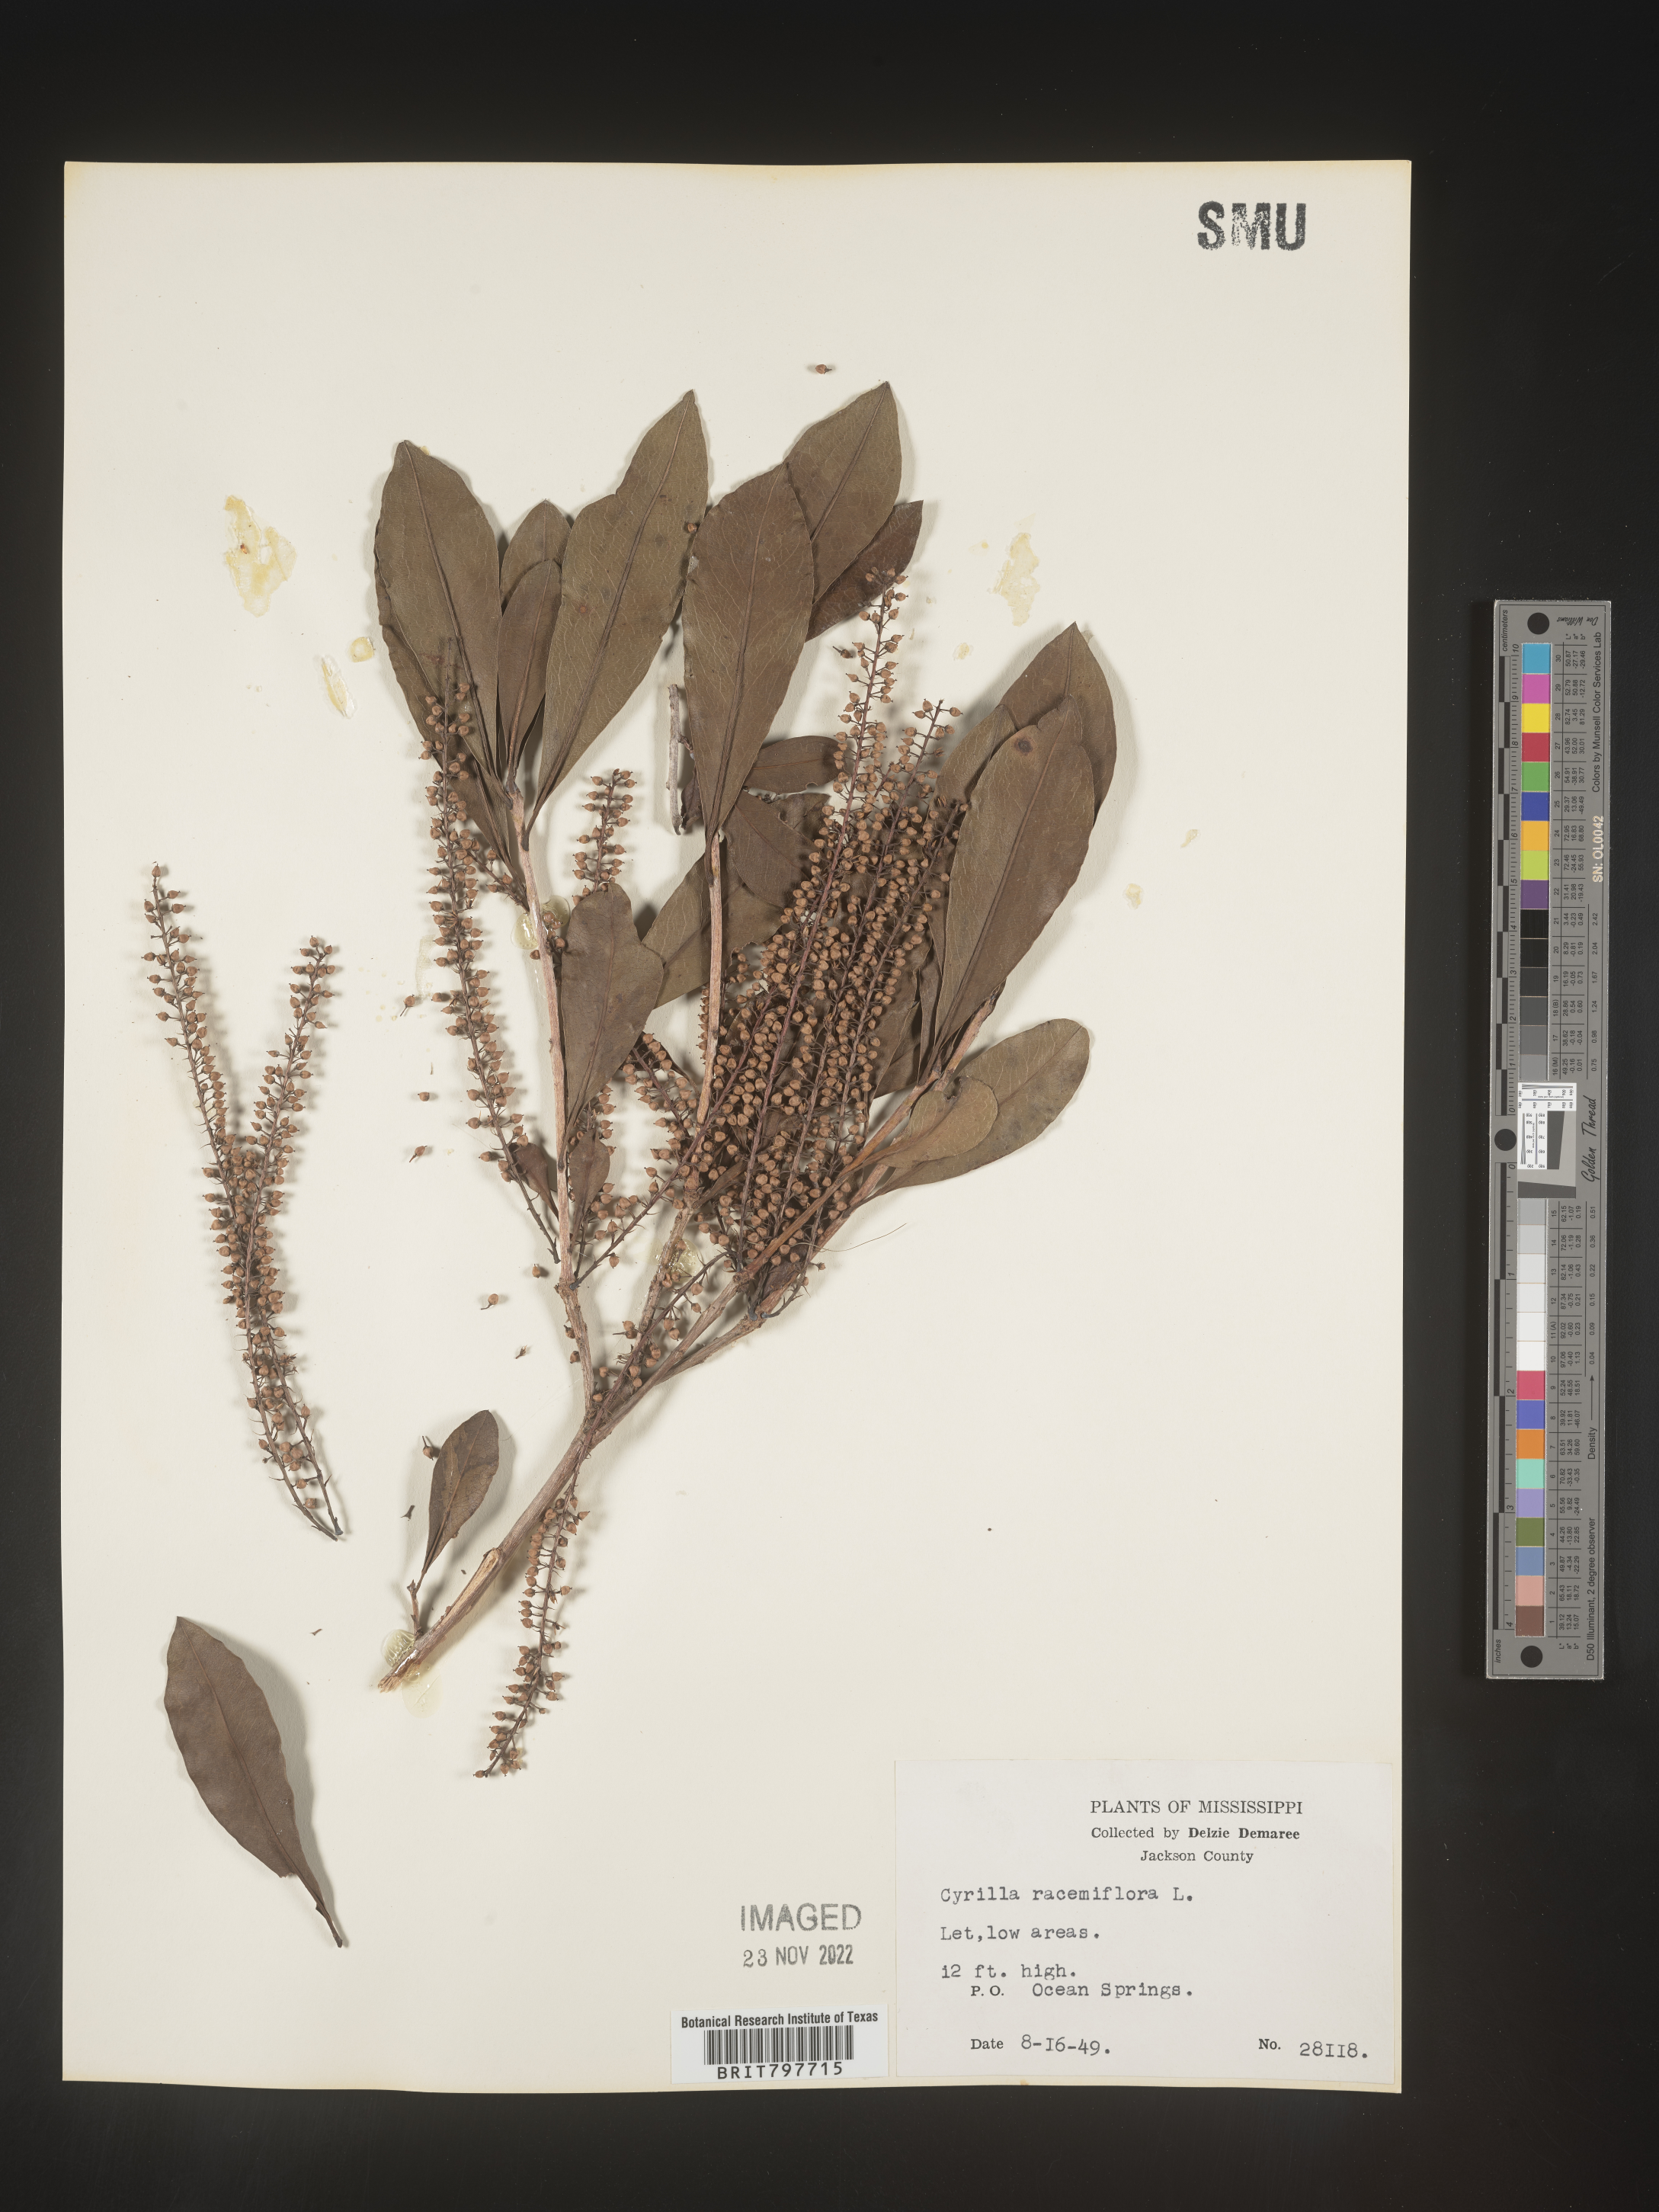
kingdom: Plantae
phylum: Tracheophyta
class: Magnoliopsida
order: Ericales
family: Cyrillaceae
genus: Cyrilla
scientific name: Cyrilla racemiflora
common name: Black titi
